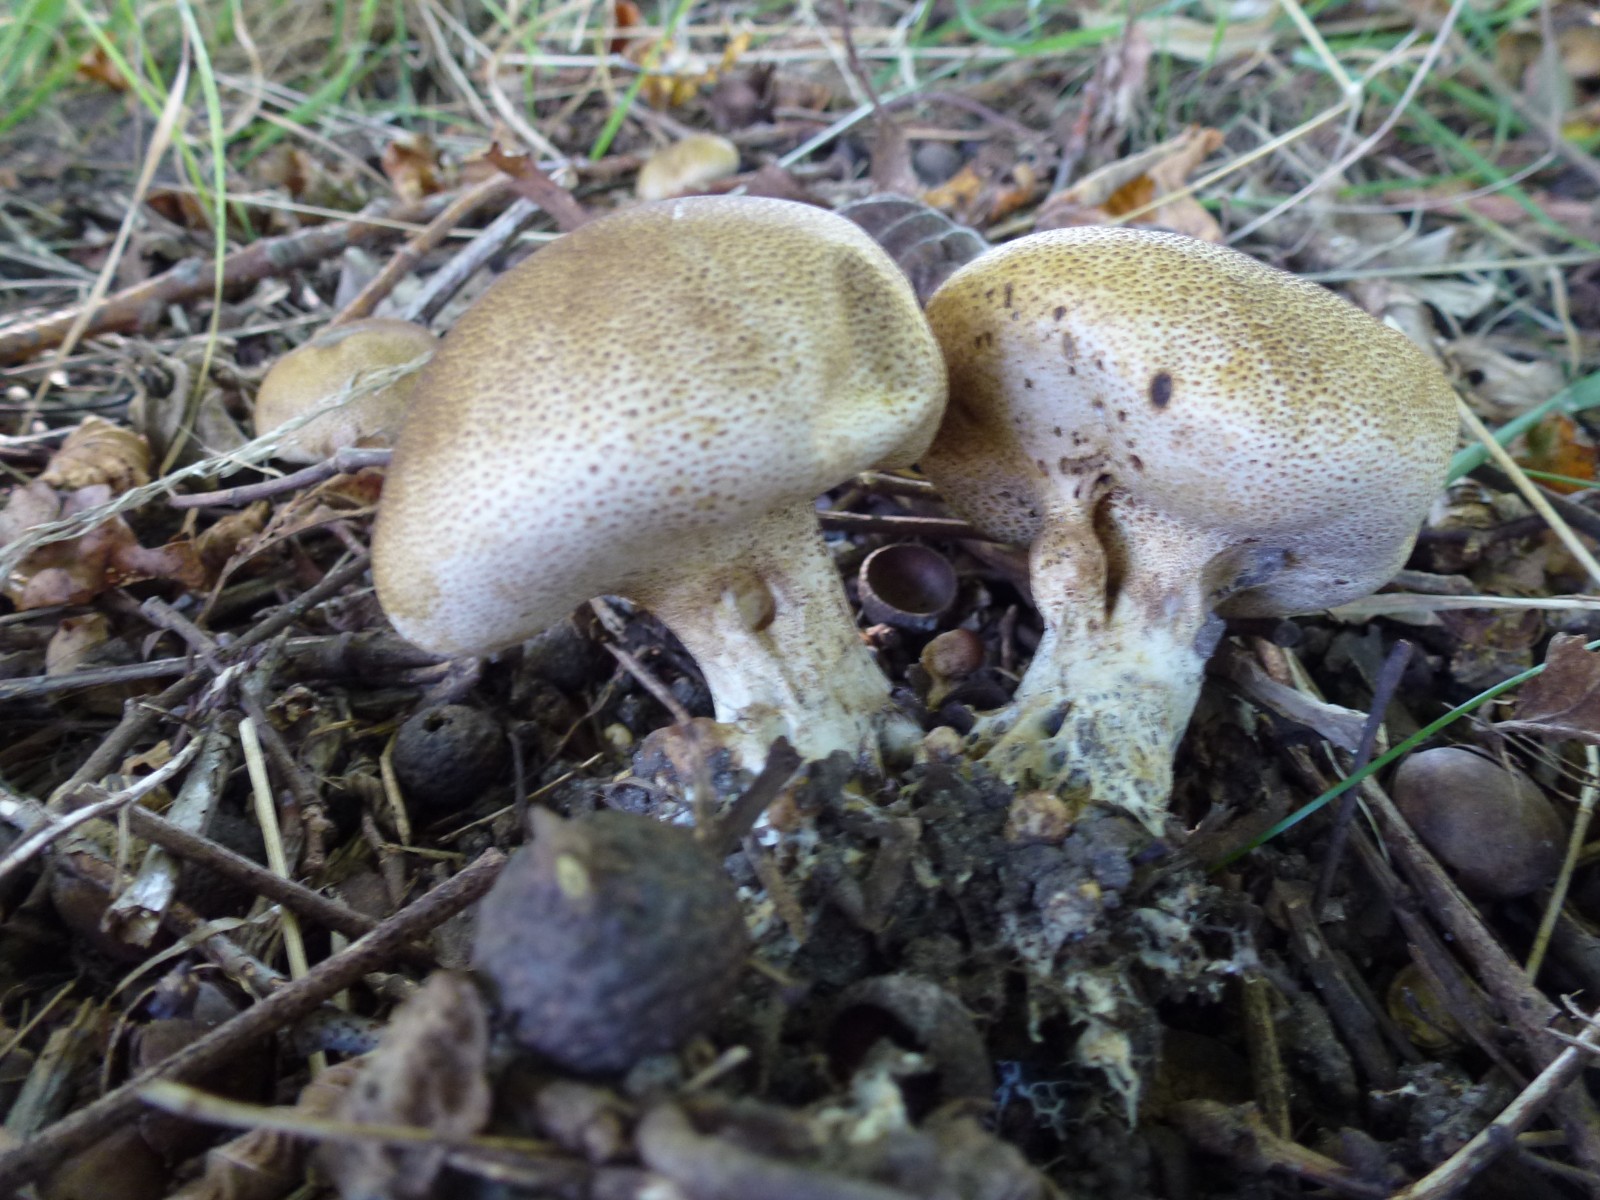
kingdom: Fungi
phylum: Basidiomycota
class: Agaricomycetes
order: Boletales
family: Sclerodermataceae
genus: Scleroderma
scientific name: Scleroderma verrucosum
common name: stilket bruskbold
